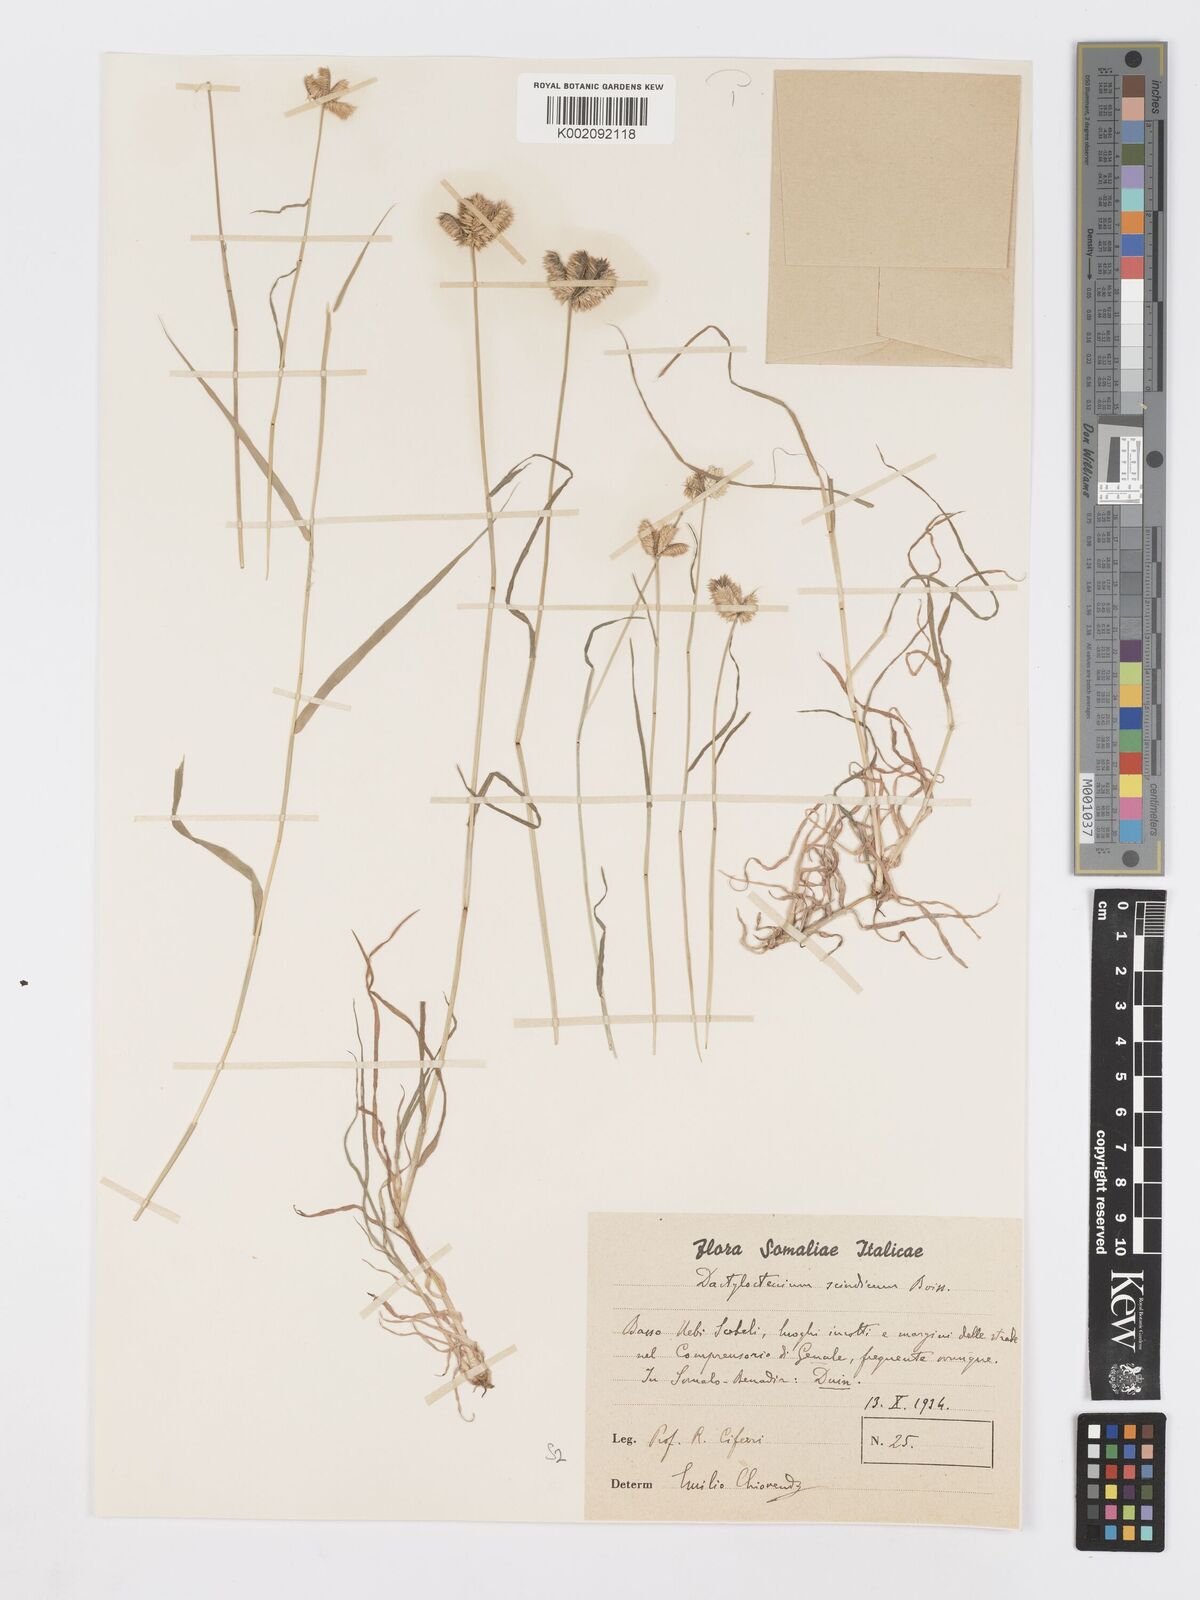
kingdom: Plantae
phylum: Tracheophyta
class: Liliopsida
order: Poales
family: Poaceae
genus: Dactyloctenium
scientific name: Dactyloctenium scindicum
